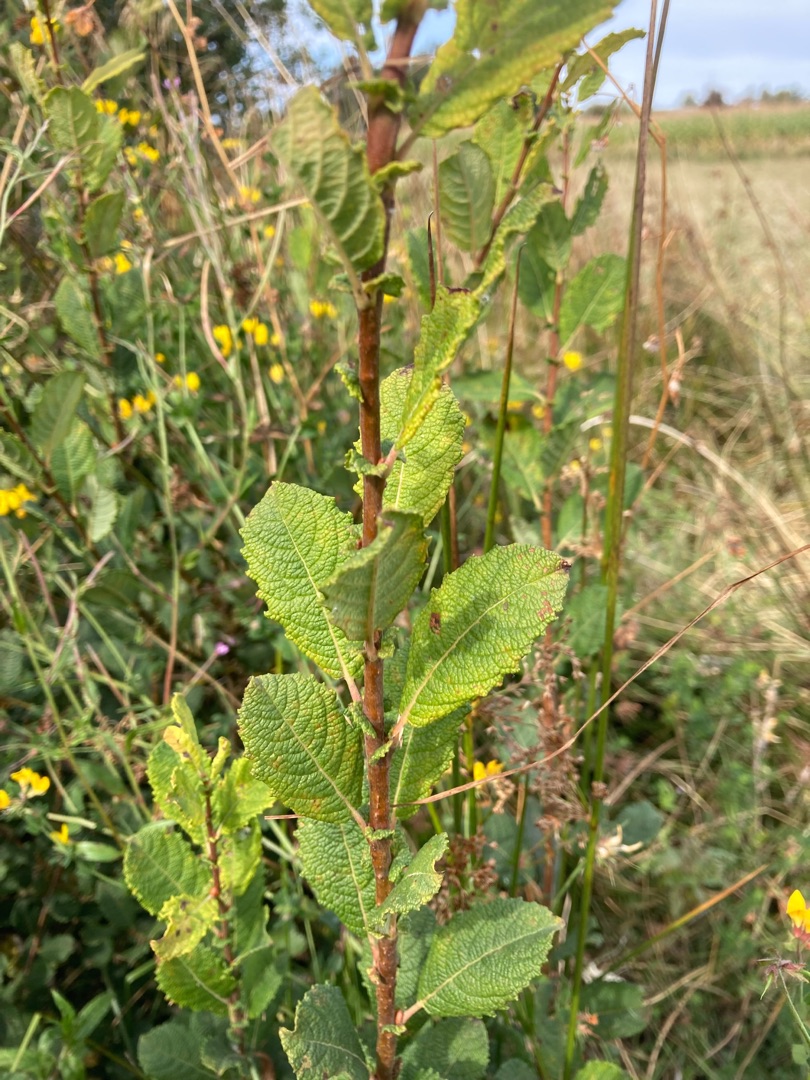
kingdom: Plantae
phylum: Tracheophyta
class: Magnoliopsida
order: Malpighiales
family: Salicaceae
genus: Salix
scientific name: Salix aurita
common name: Øret pil
